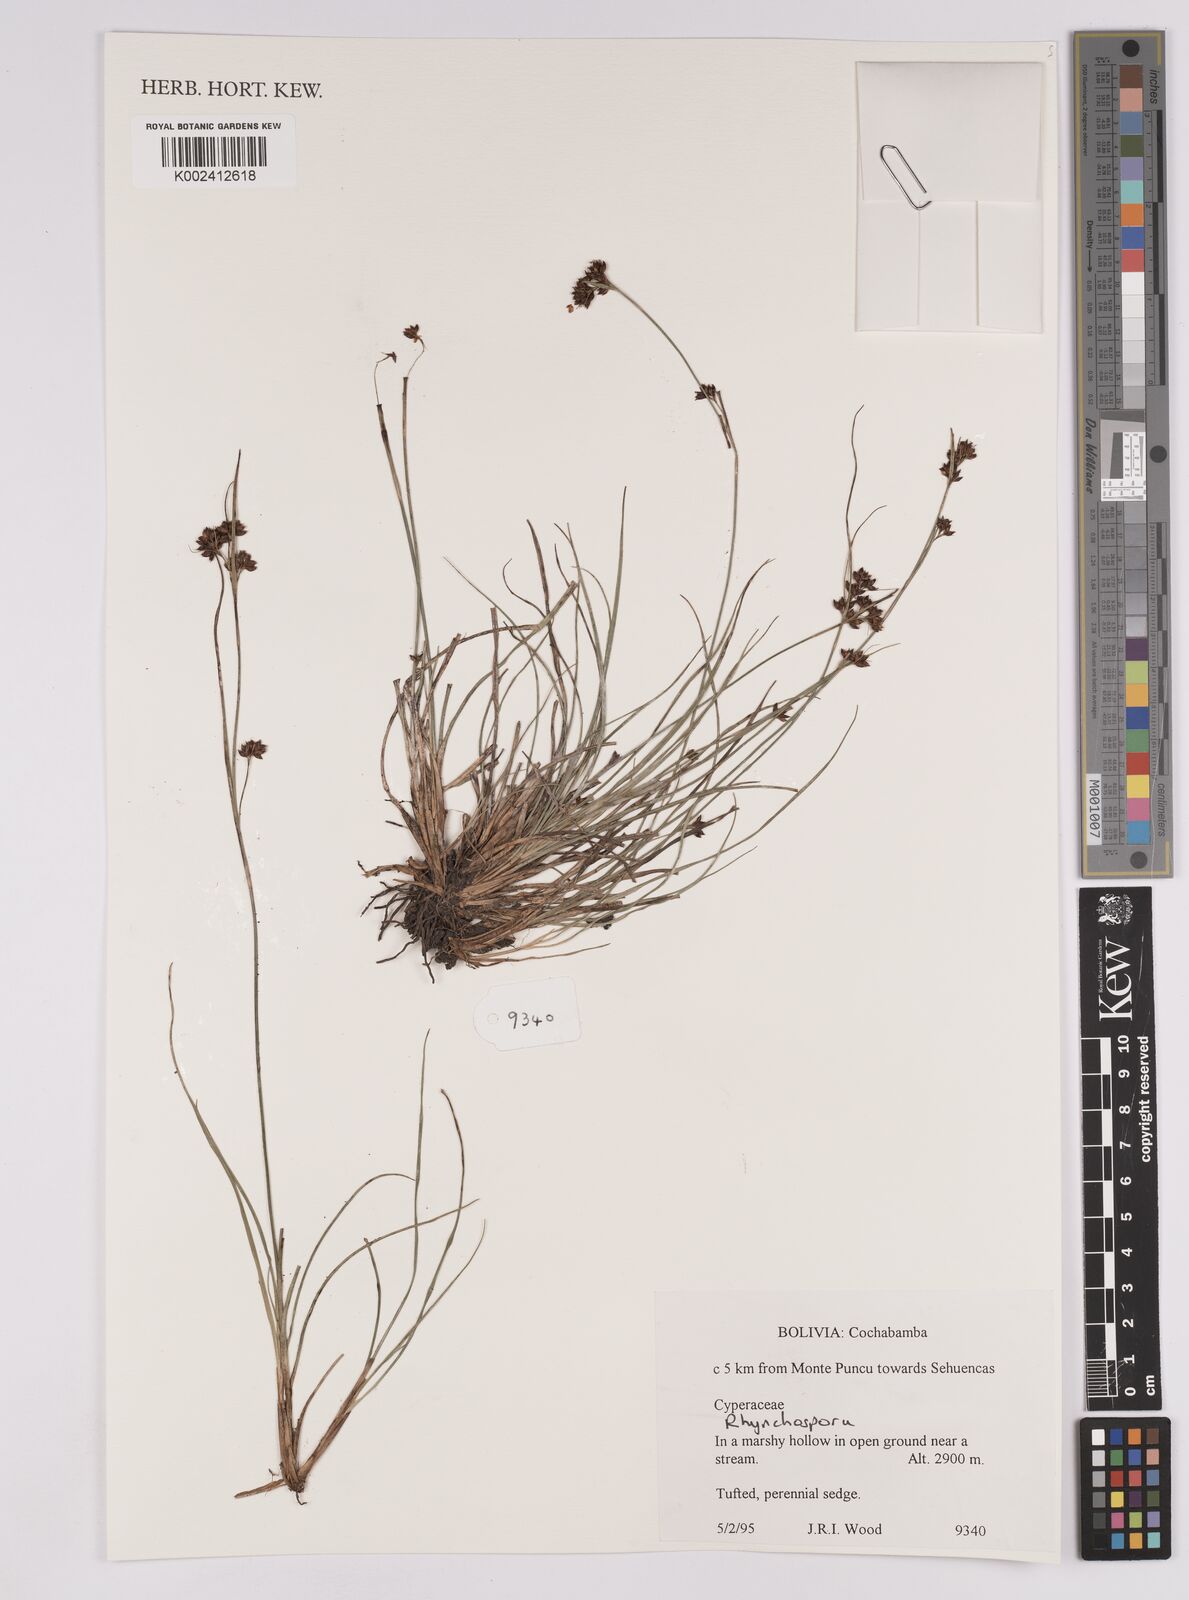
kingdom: Plantae
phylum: Tracheophyta
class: Liliopsida
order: Poales
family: Cyperaceae
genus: Rhynchospora
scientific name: Rhynchospora
